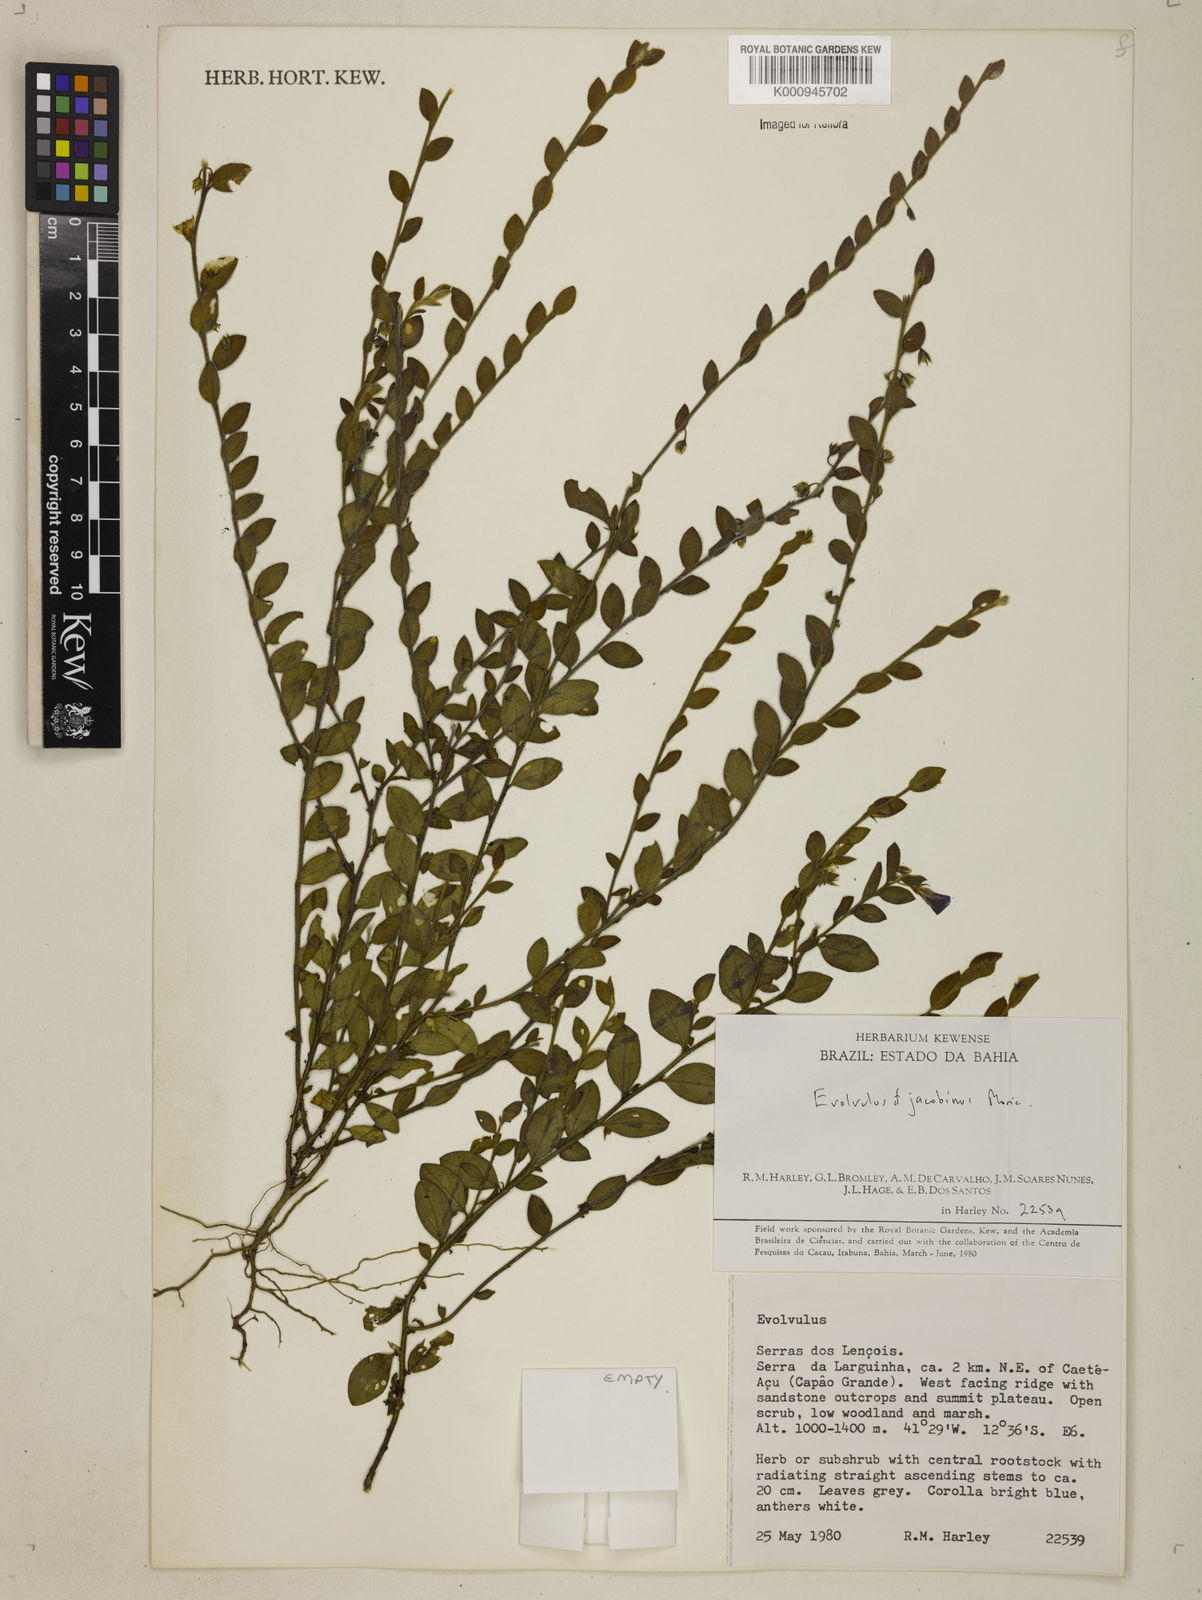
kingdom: Plantae
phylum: Tracheophyta
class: Magnoliopsida
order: Solanales
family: Convolvulaceae
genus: Evolvulus
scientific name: Evolvulus jacobinus
